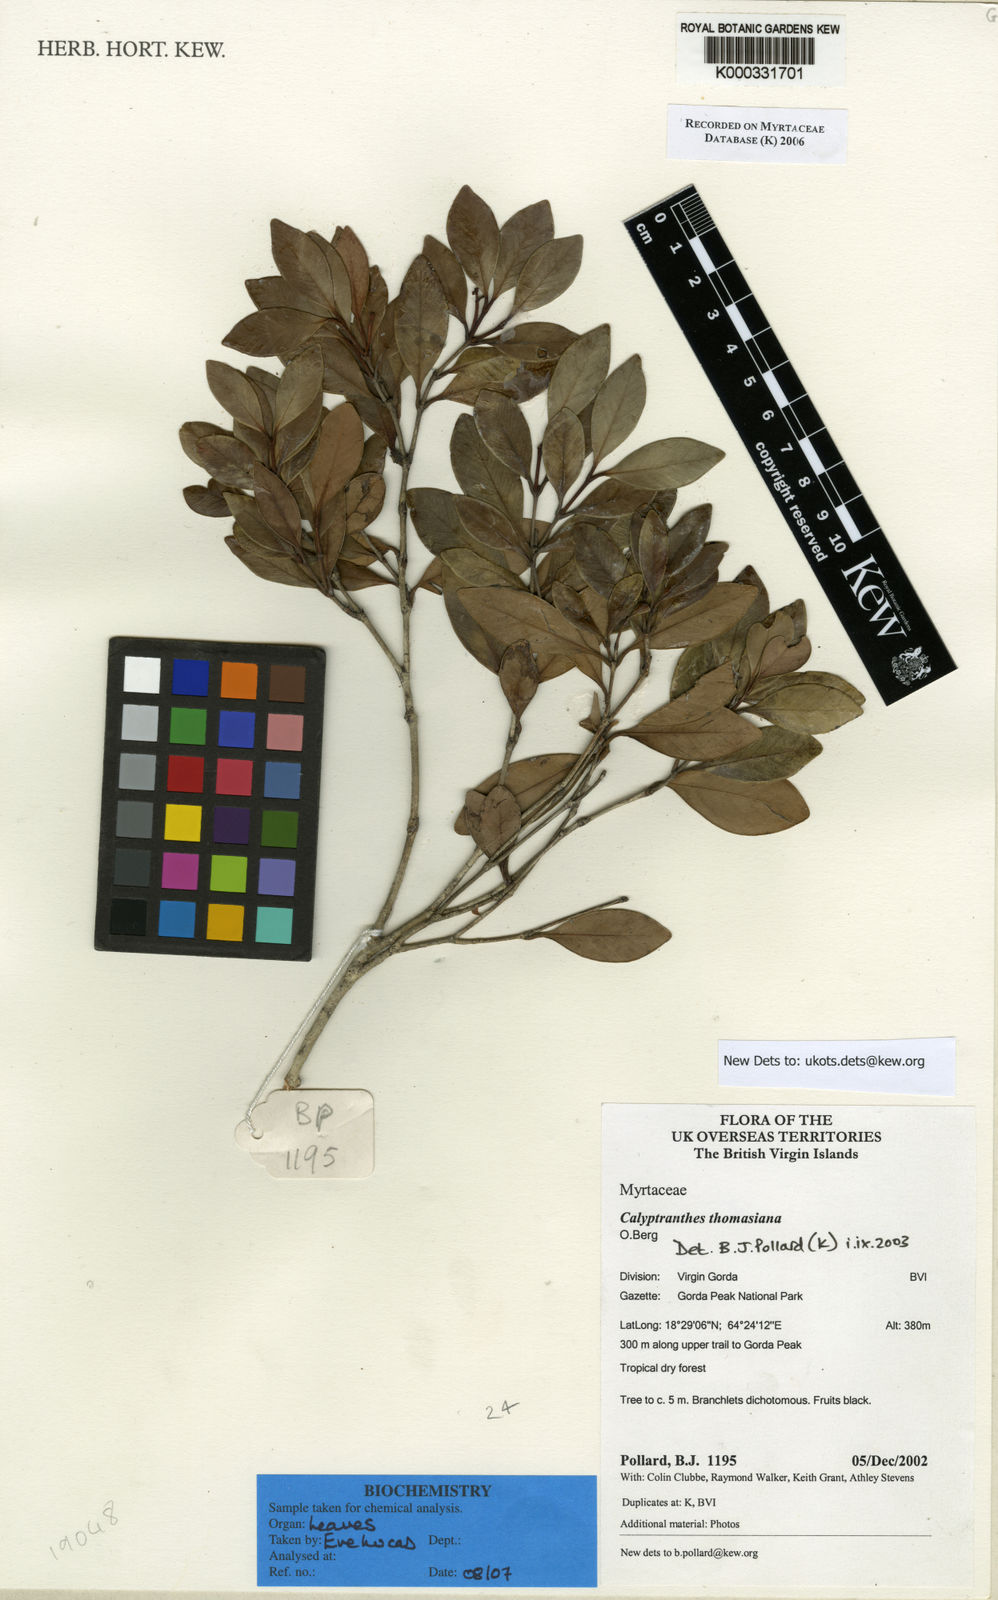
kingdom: Plantae
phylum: Tracheophyta
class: Magnoliopsida
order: Myrtales
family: Myrtaceae
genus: Myrcia
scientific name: Myrcia neothomasiana
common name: St. thomas lidflower
